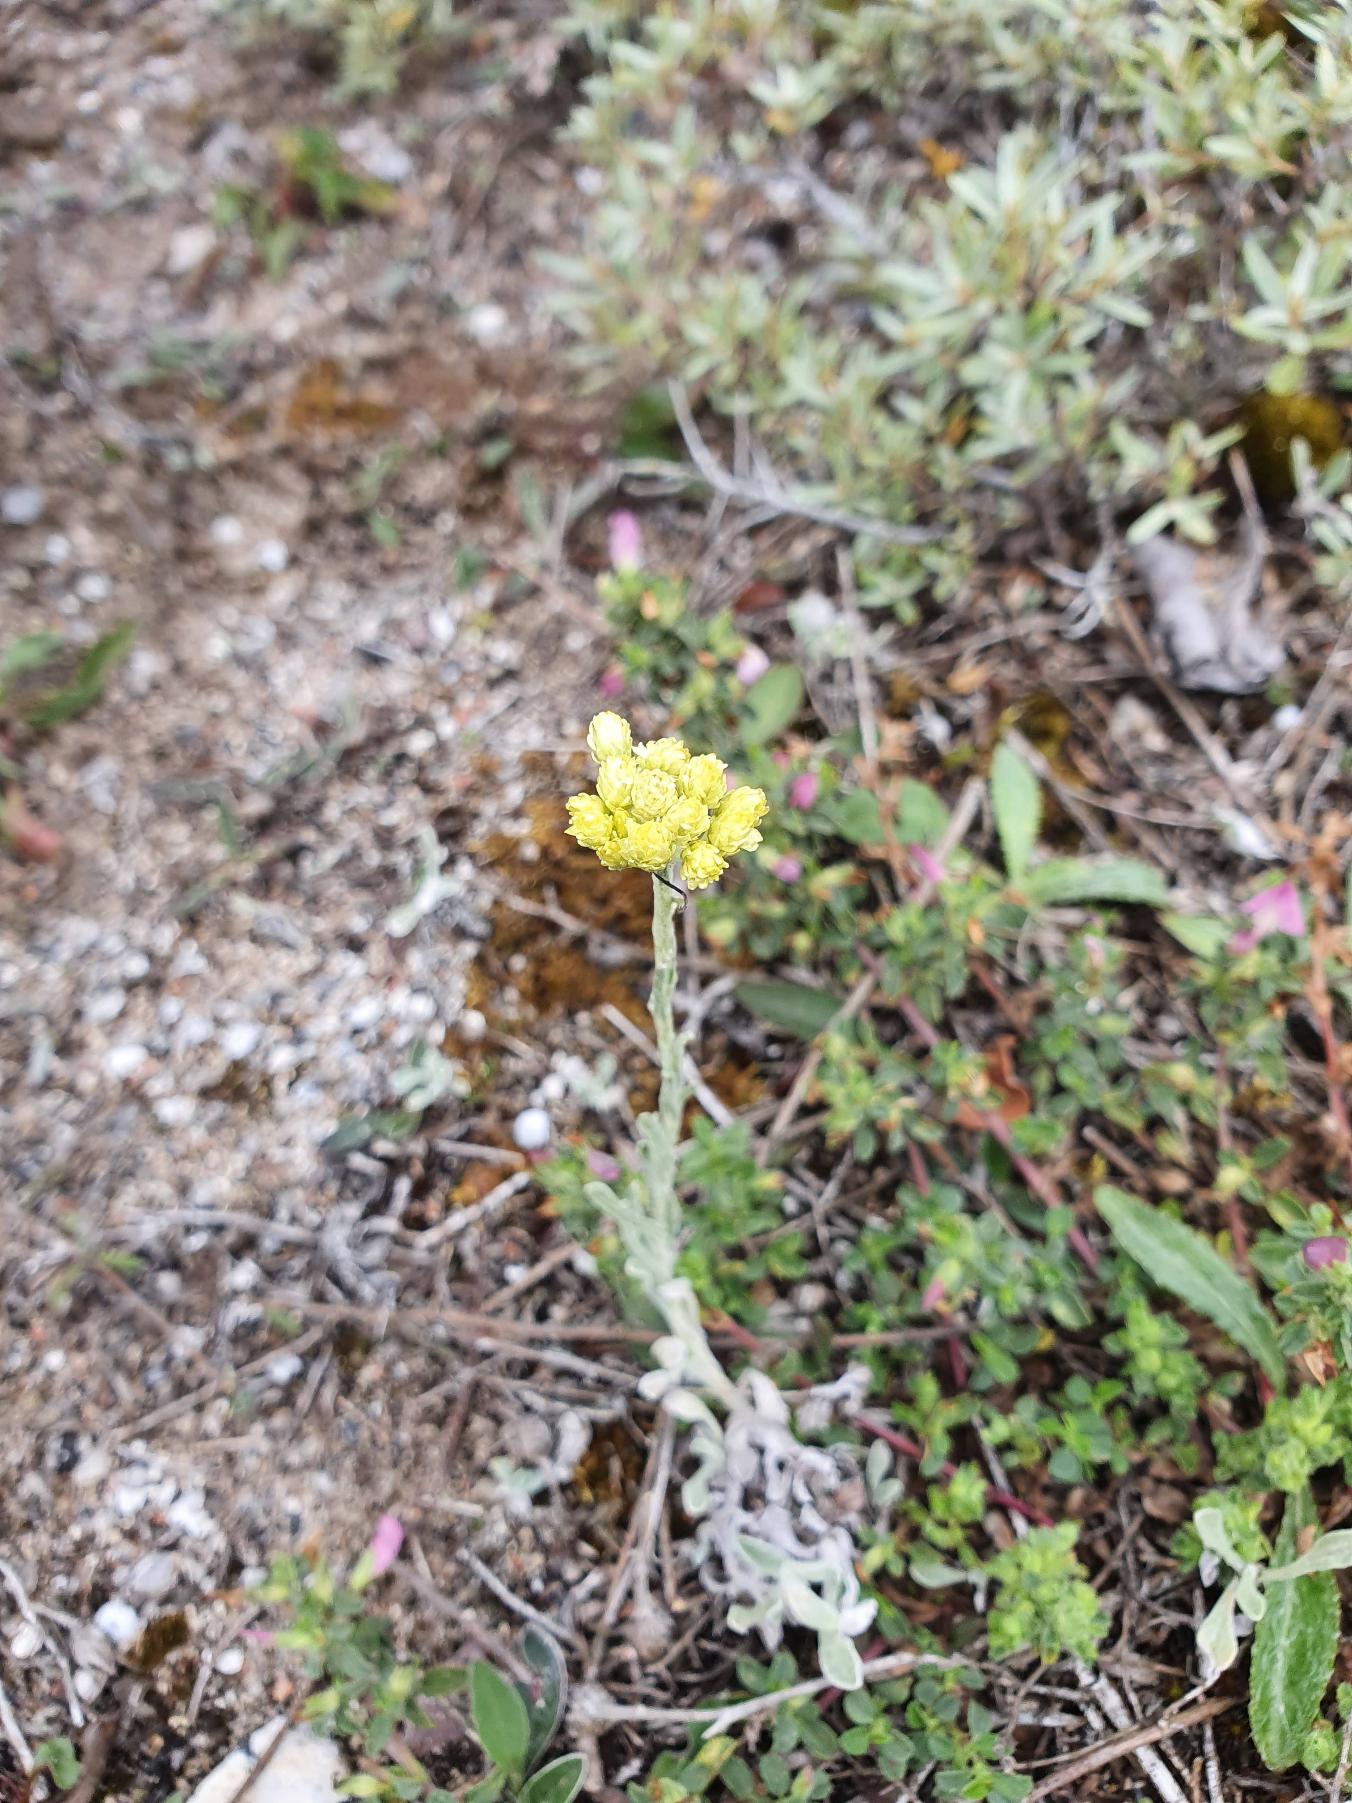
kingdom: Plantae
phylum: Tracheophyta
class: Magnoliopsida
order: Asterales
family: Asteraceae
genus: Helichrysum
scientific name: Helichrysum arenarium
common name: Gul evighedsblomst
